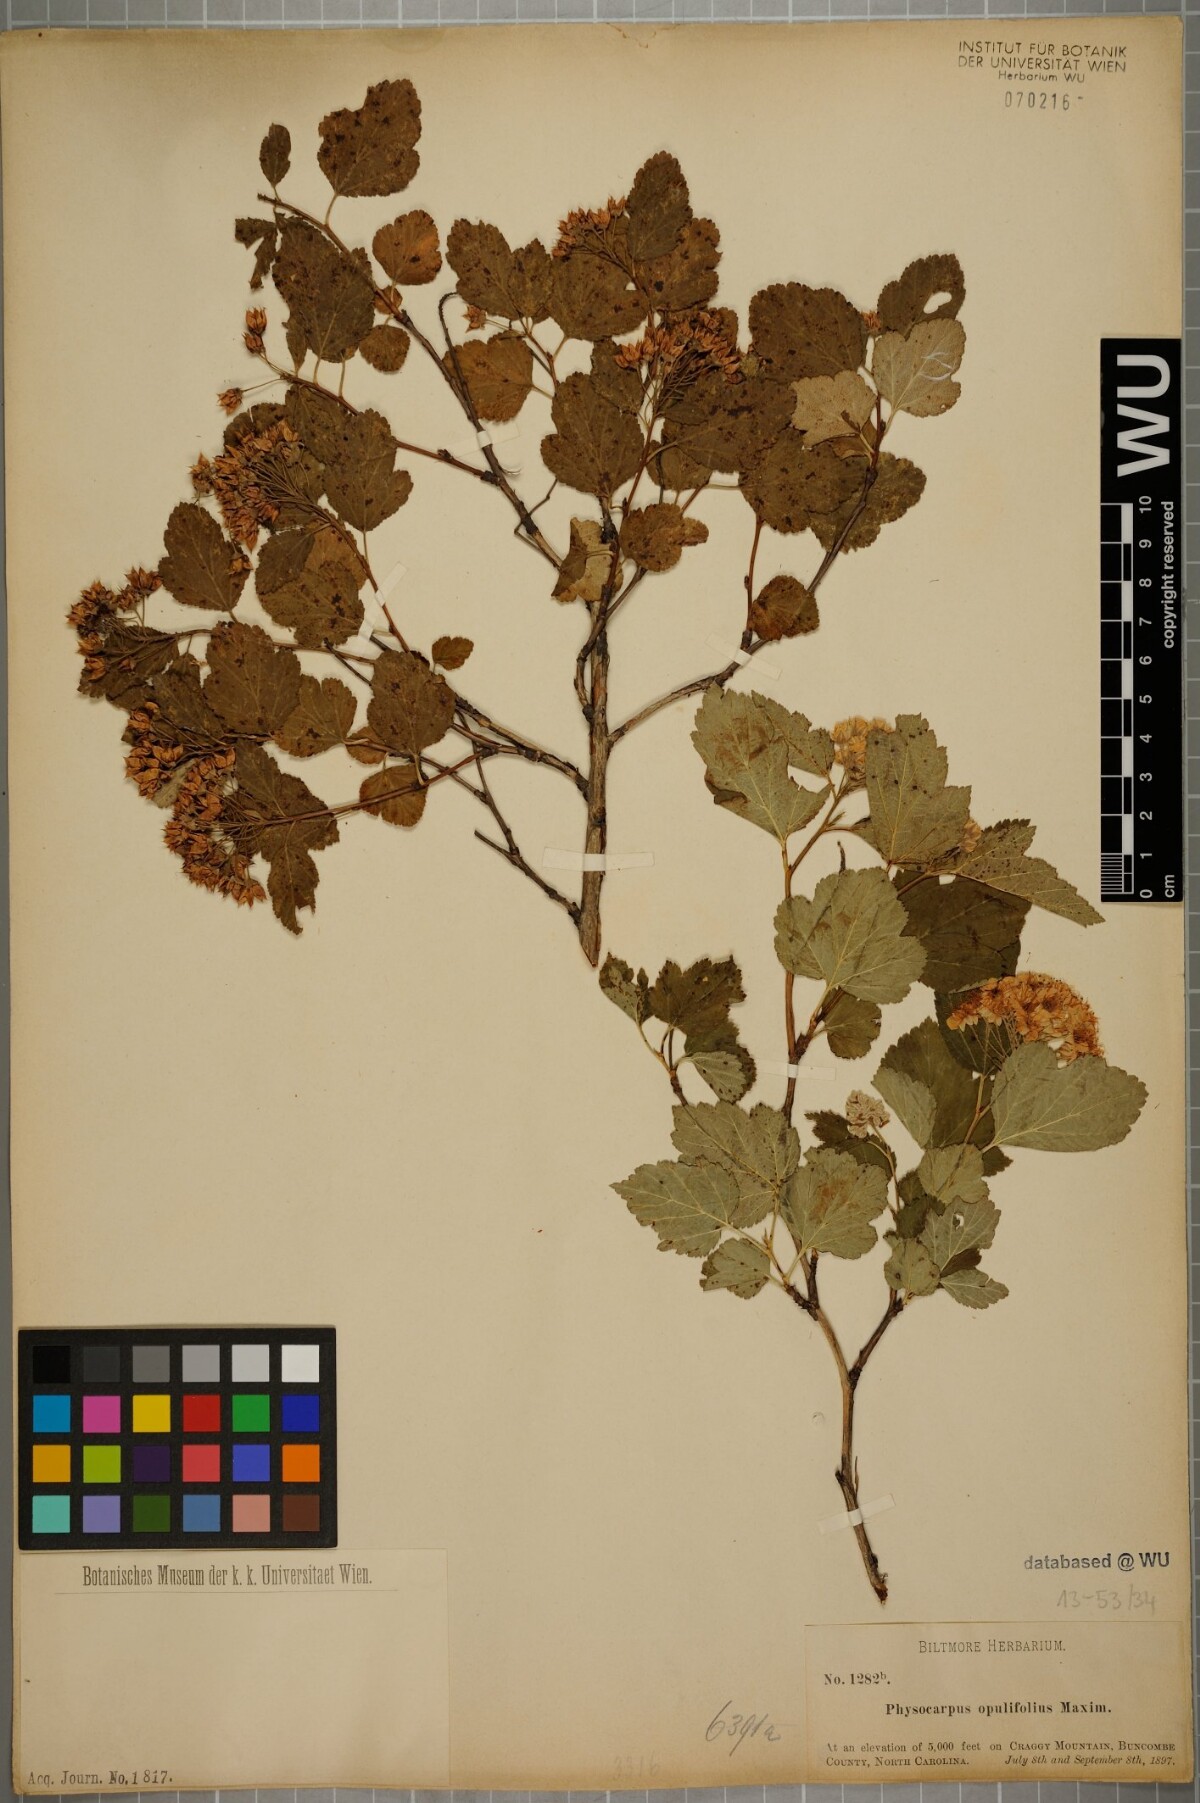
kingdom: Plantae
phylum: Tracheophyta
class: Magnoliopsida
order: Rosales
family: Rosaceae
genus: Physocarpus
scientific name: Physocarpus opulifolius
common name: Ninebark
